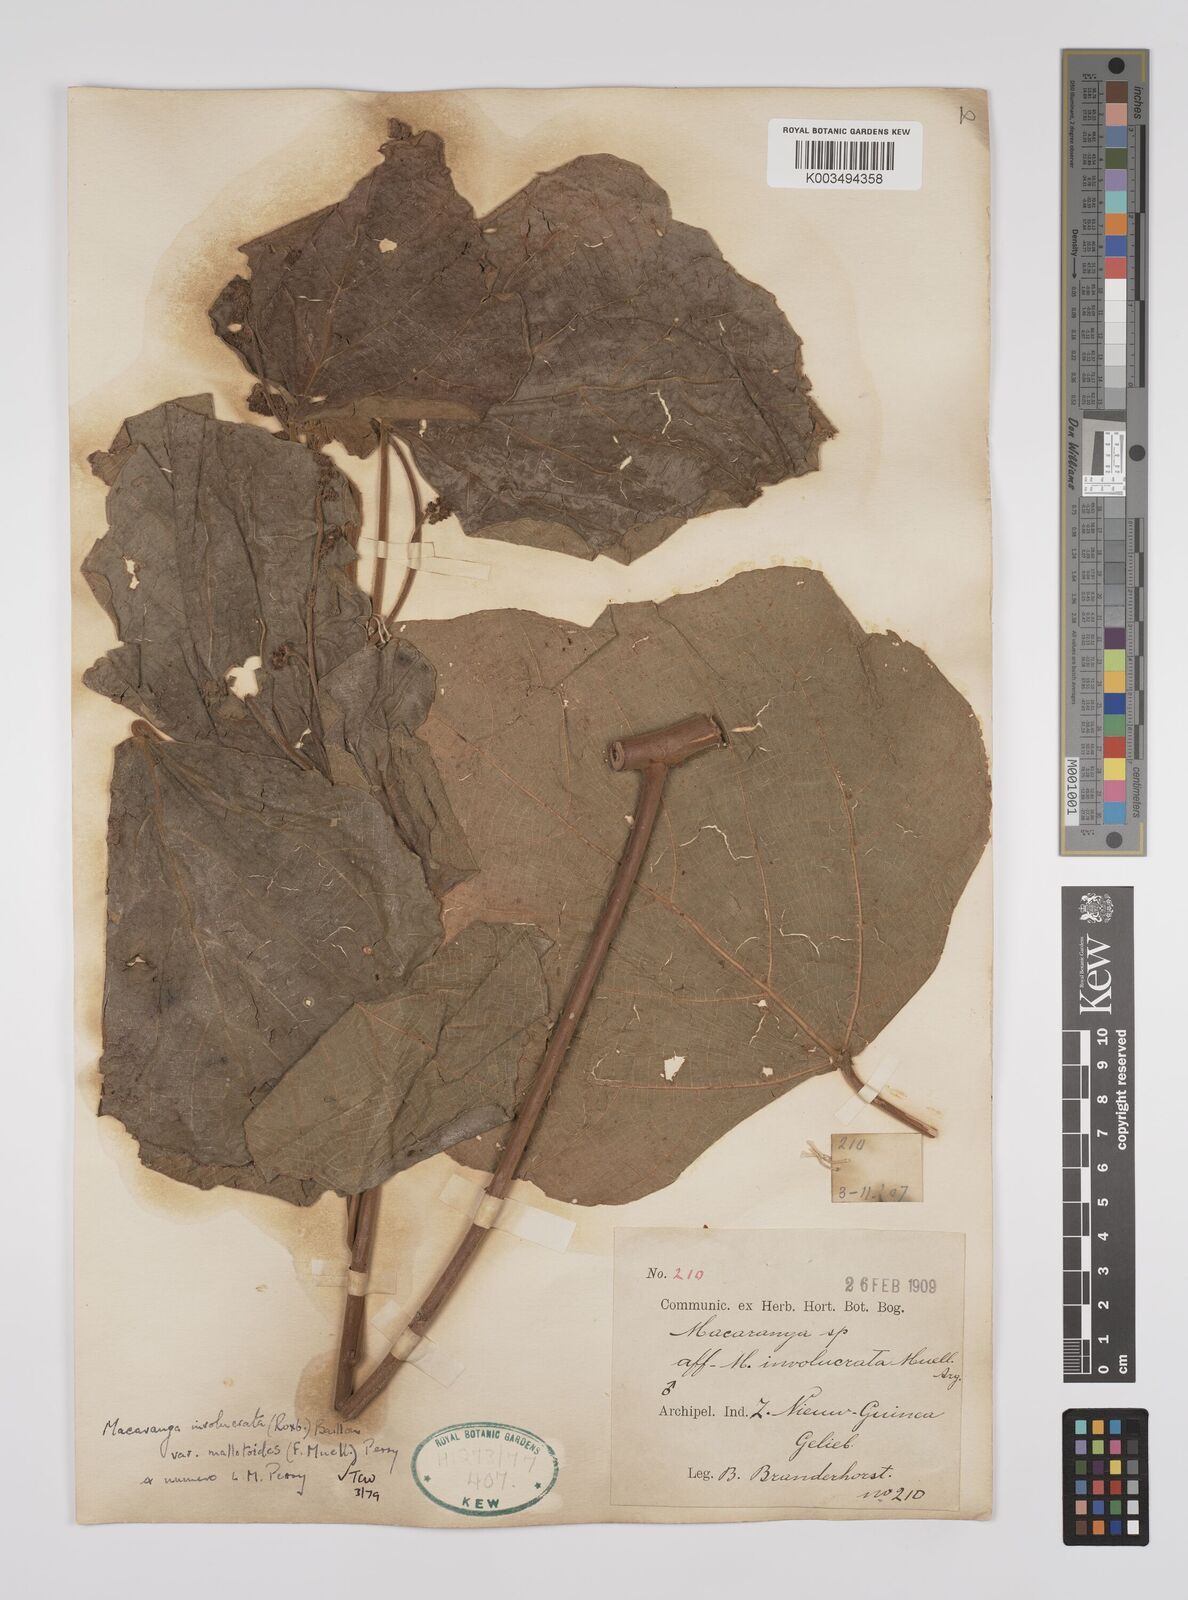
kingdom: Plantae
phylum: Tracheophyta
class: Magnoliopsida
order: Malpighiales
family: Euphorbiaceae
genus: Macaranga
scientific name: Macaranga involucrata
